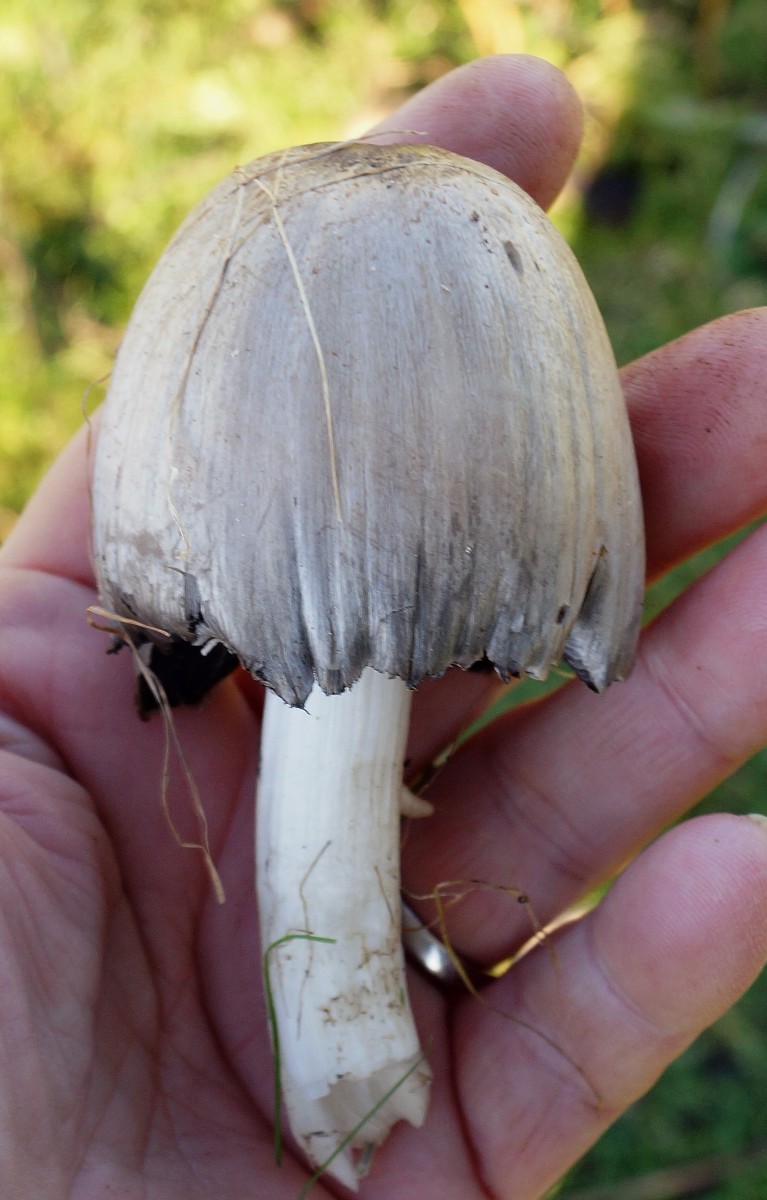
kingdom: Fungi
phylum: Basidiomycota
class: Agaricomycetes
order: Agaricales
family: Psathyrellaceae
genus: Coprinopsis
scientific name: Coprinopsis atramentaria
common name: almindelig blækhat
